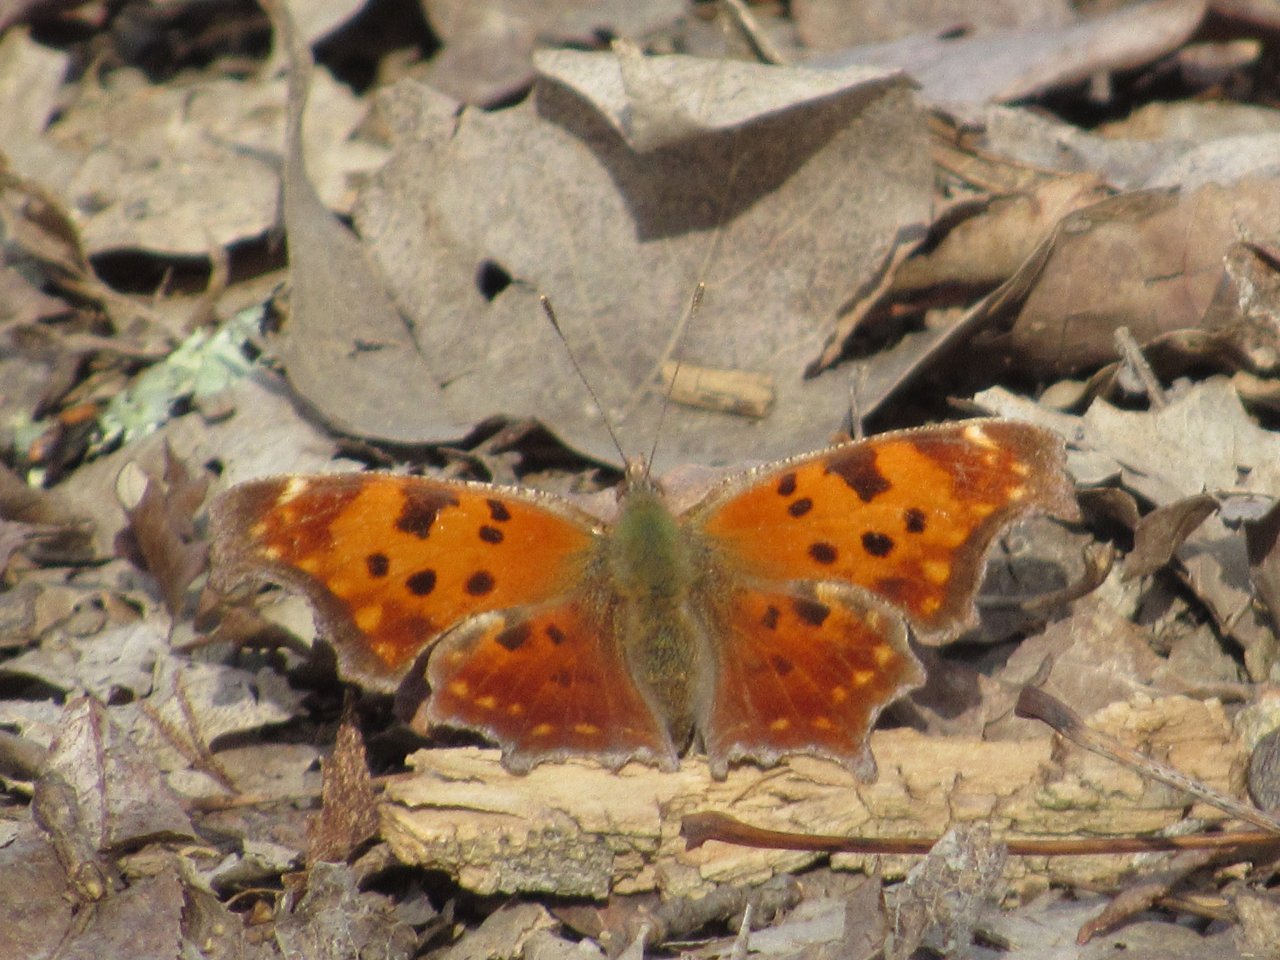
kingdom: Animalia
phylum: Arthropoda
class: Insecta
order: Lepidoptera
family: Nymphalidae
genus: Polygonia
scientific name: Polygonia comma
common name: Eastern Comma
